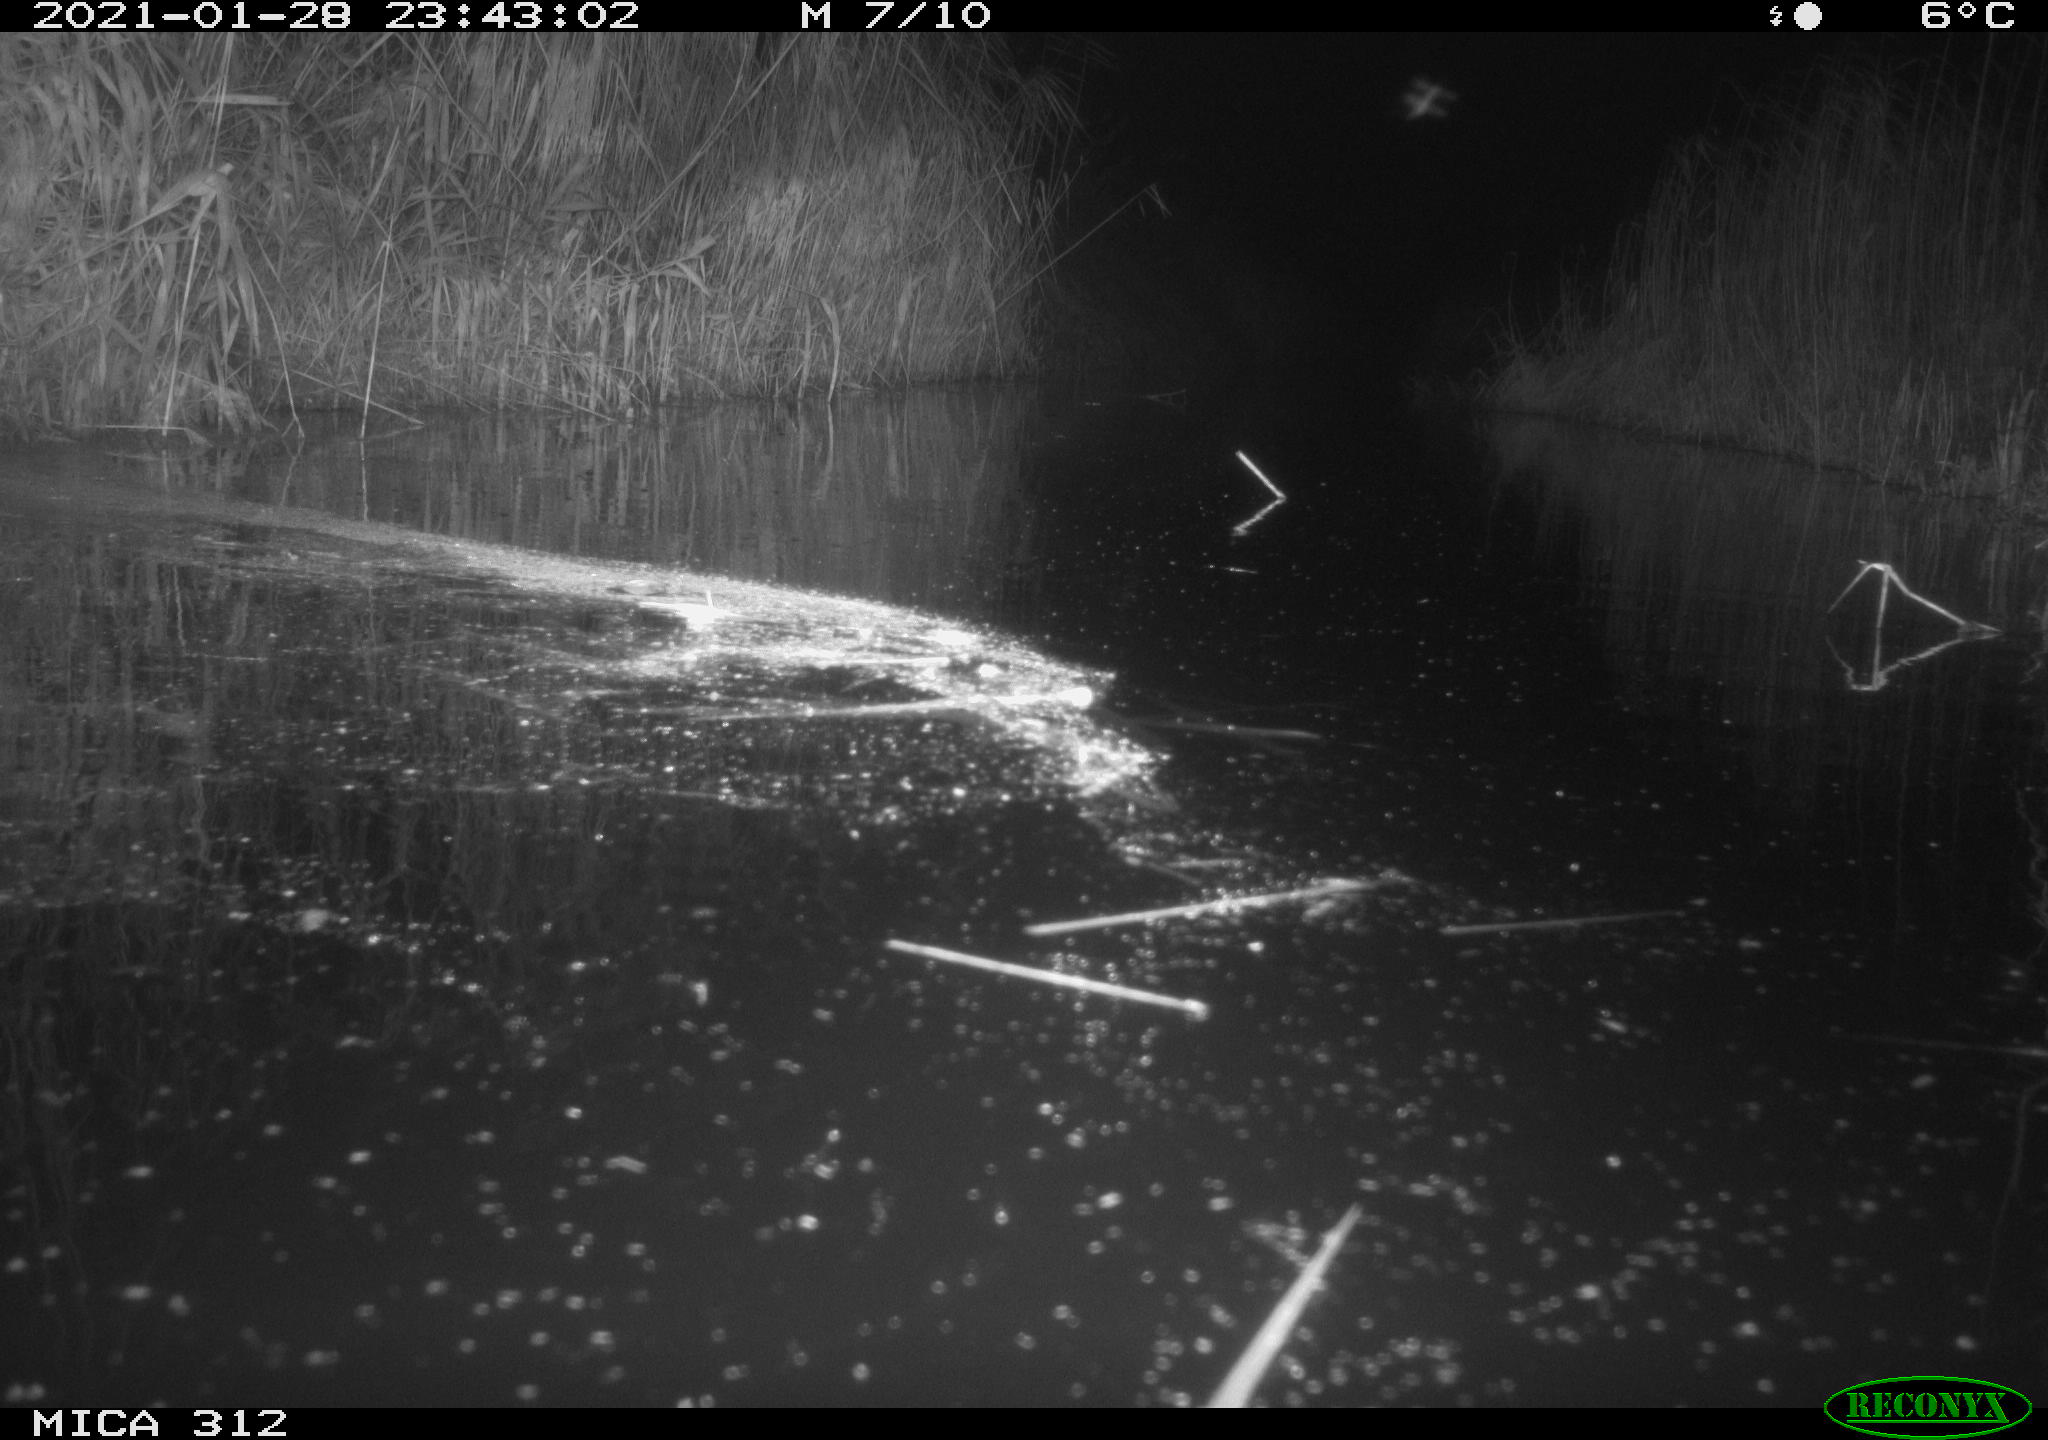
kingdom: Animalia
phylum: Chordata
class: Mammalia
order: Rodentia
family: Muridae
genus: Rattus
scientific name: Rattus norvegicus
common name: Brown rat
